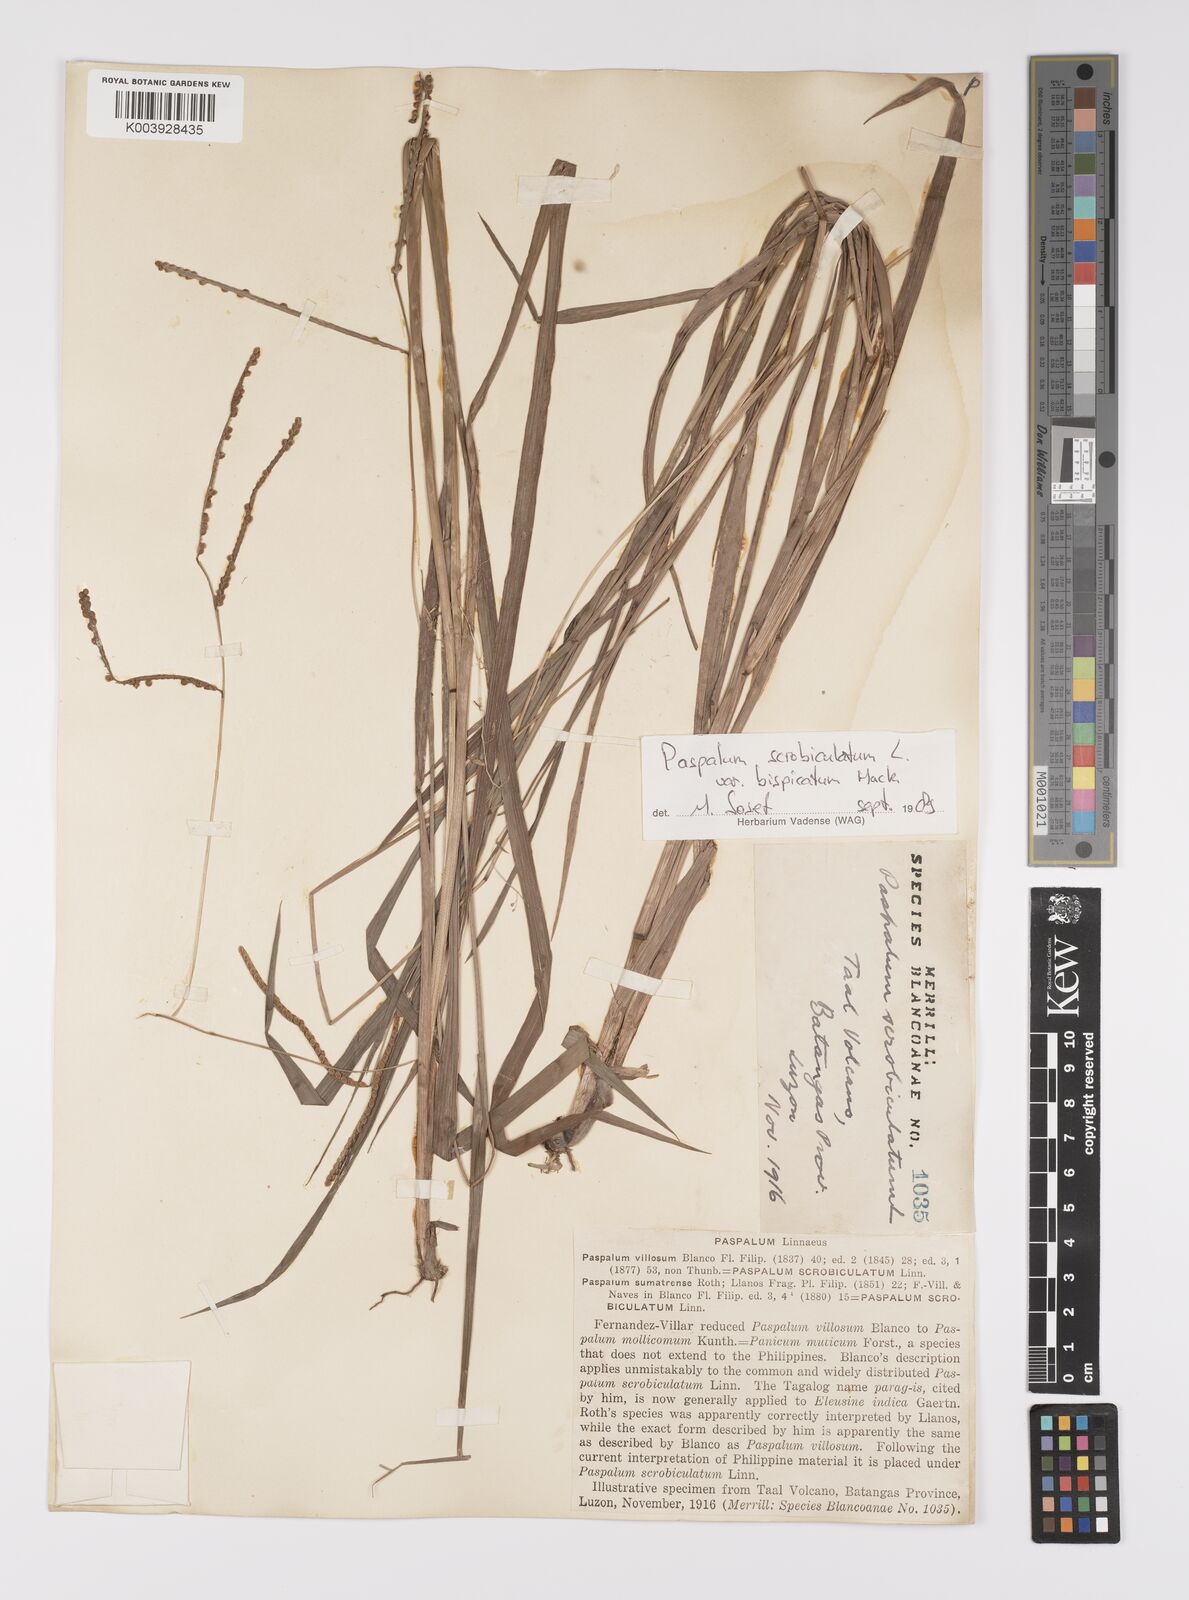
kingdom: Plantae
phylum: Tracheophyta
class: Liliopsida
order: Poales
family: Poaceae
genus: Paspalum
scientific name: Paspalum scrobiculatum
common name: Kodo millet
